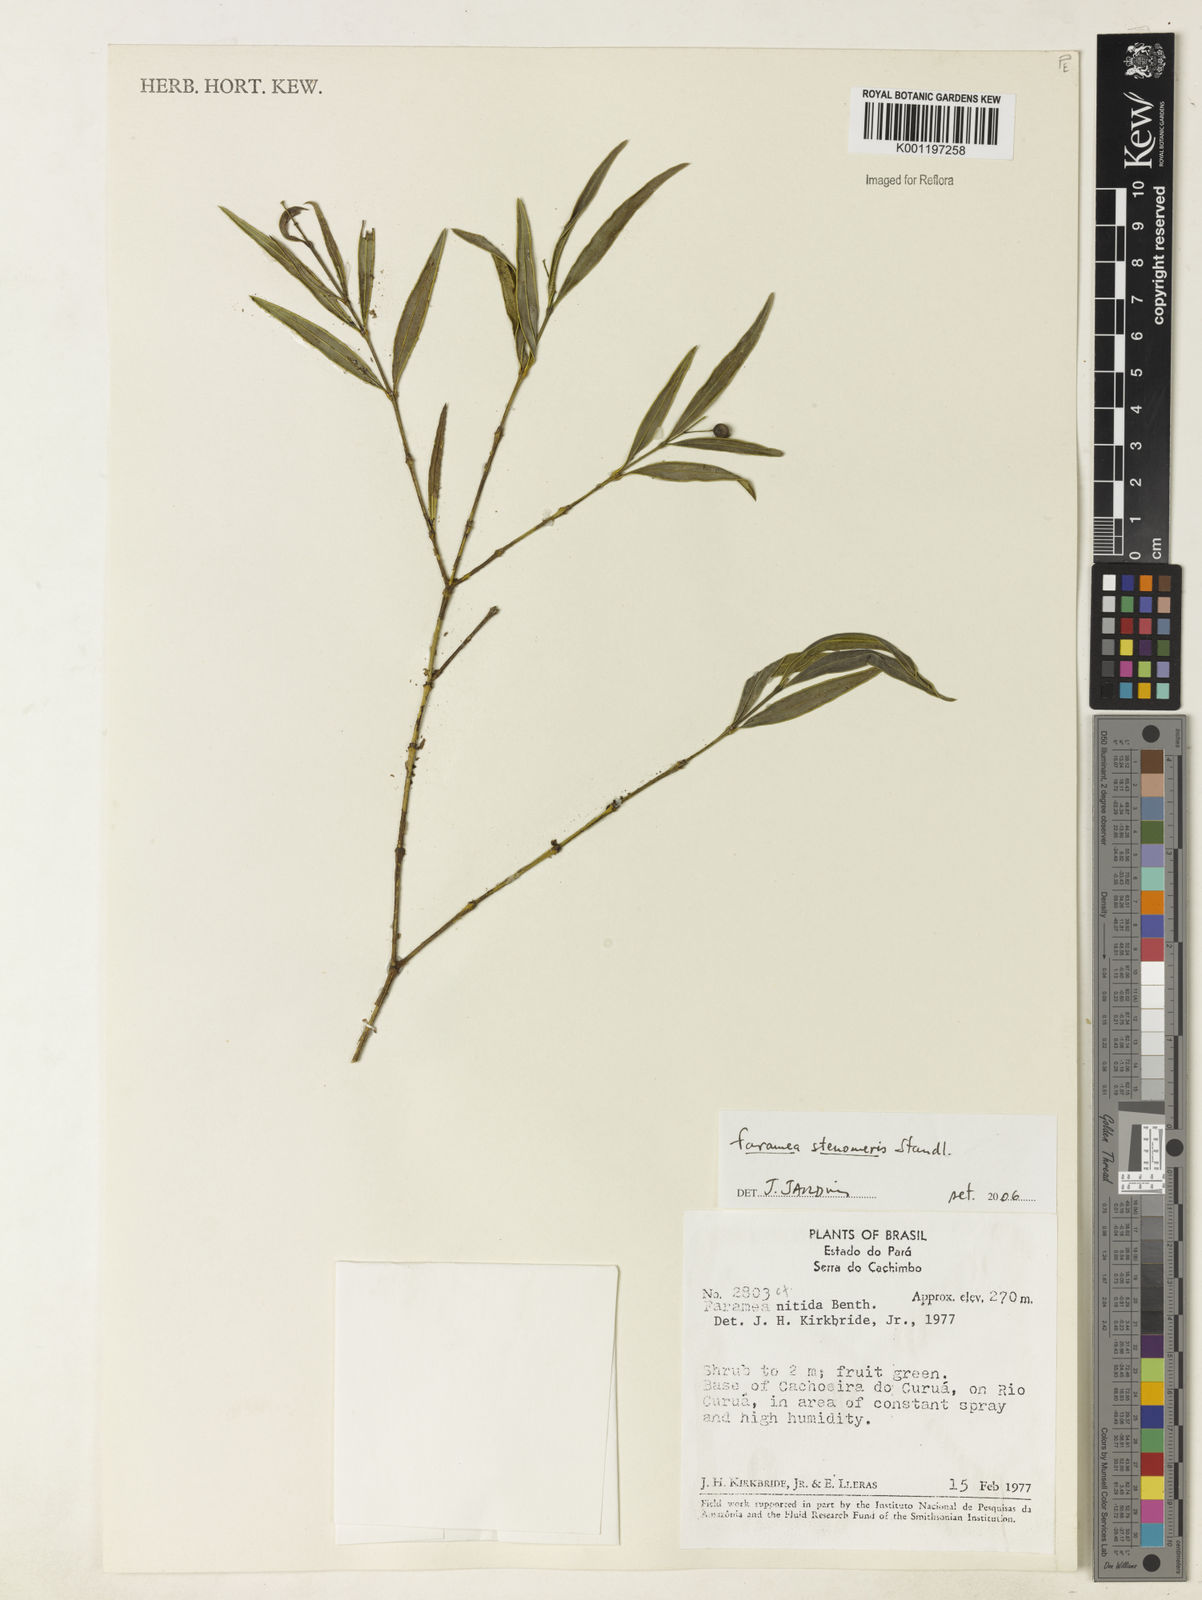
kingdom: Plantae
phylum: Tracheophyta
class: Magnoliopsida
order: Gentianales
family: Rubiaceae
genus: Faramea
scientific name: Faramea stenomeris
